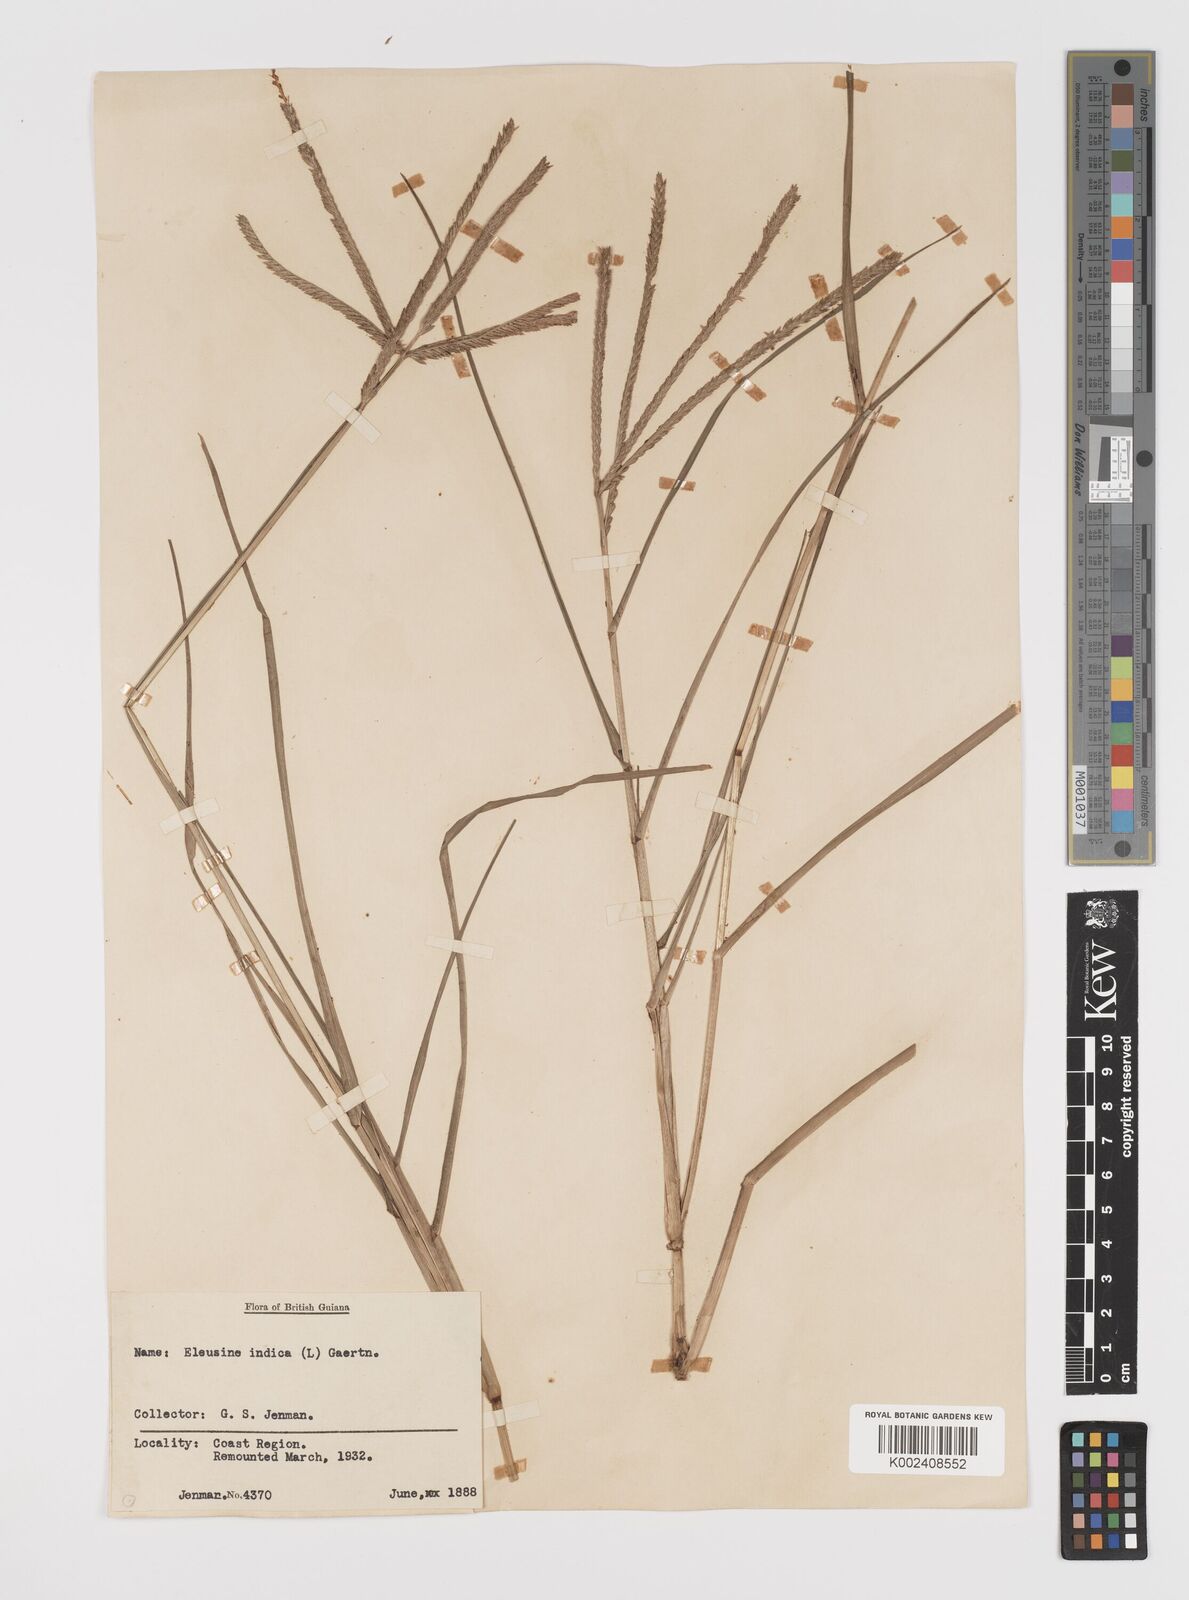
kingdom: Plantae
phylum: Tracheophyta
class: Liliopsida
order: Poales
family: Poaceae
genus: Eleusine
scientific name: Eleusine indica
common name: Yard-grass
